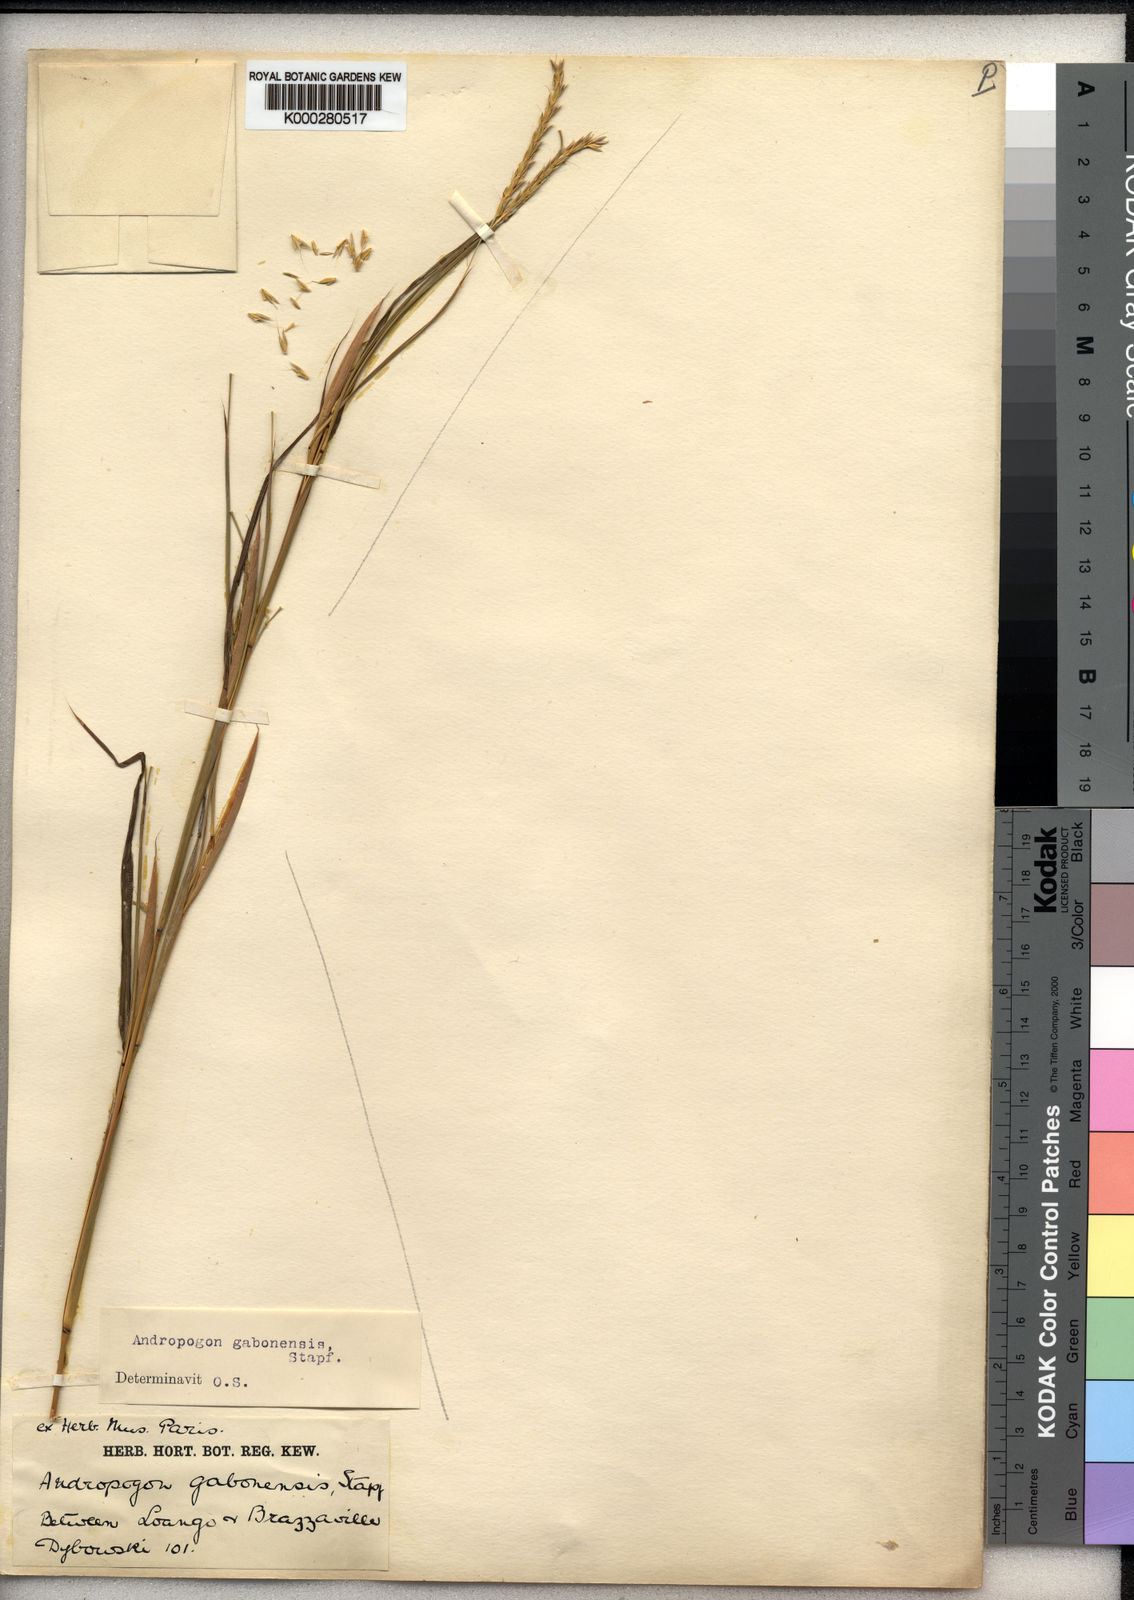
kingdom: Plantae
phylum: Tracheophyta
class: Liliopsida
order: Poales
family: Poaceae
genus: Andropogon
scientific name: Andropogon gabonensis
